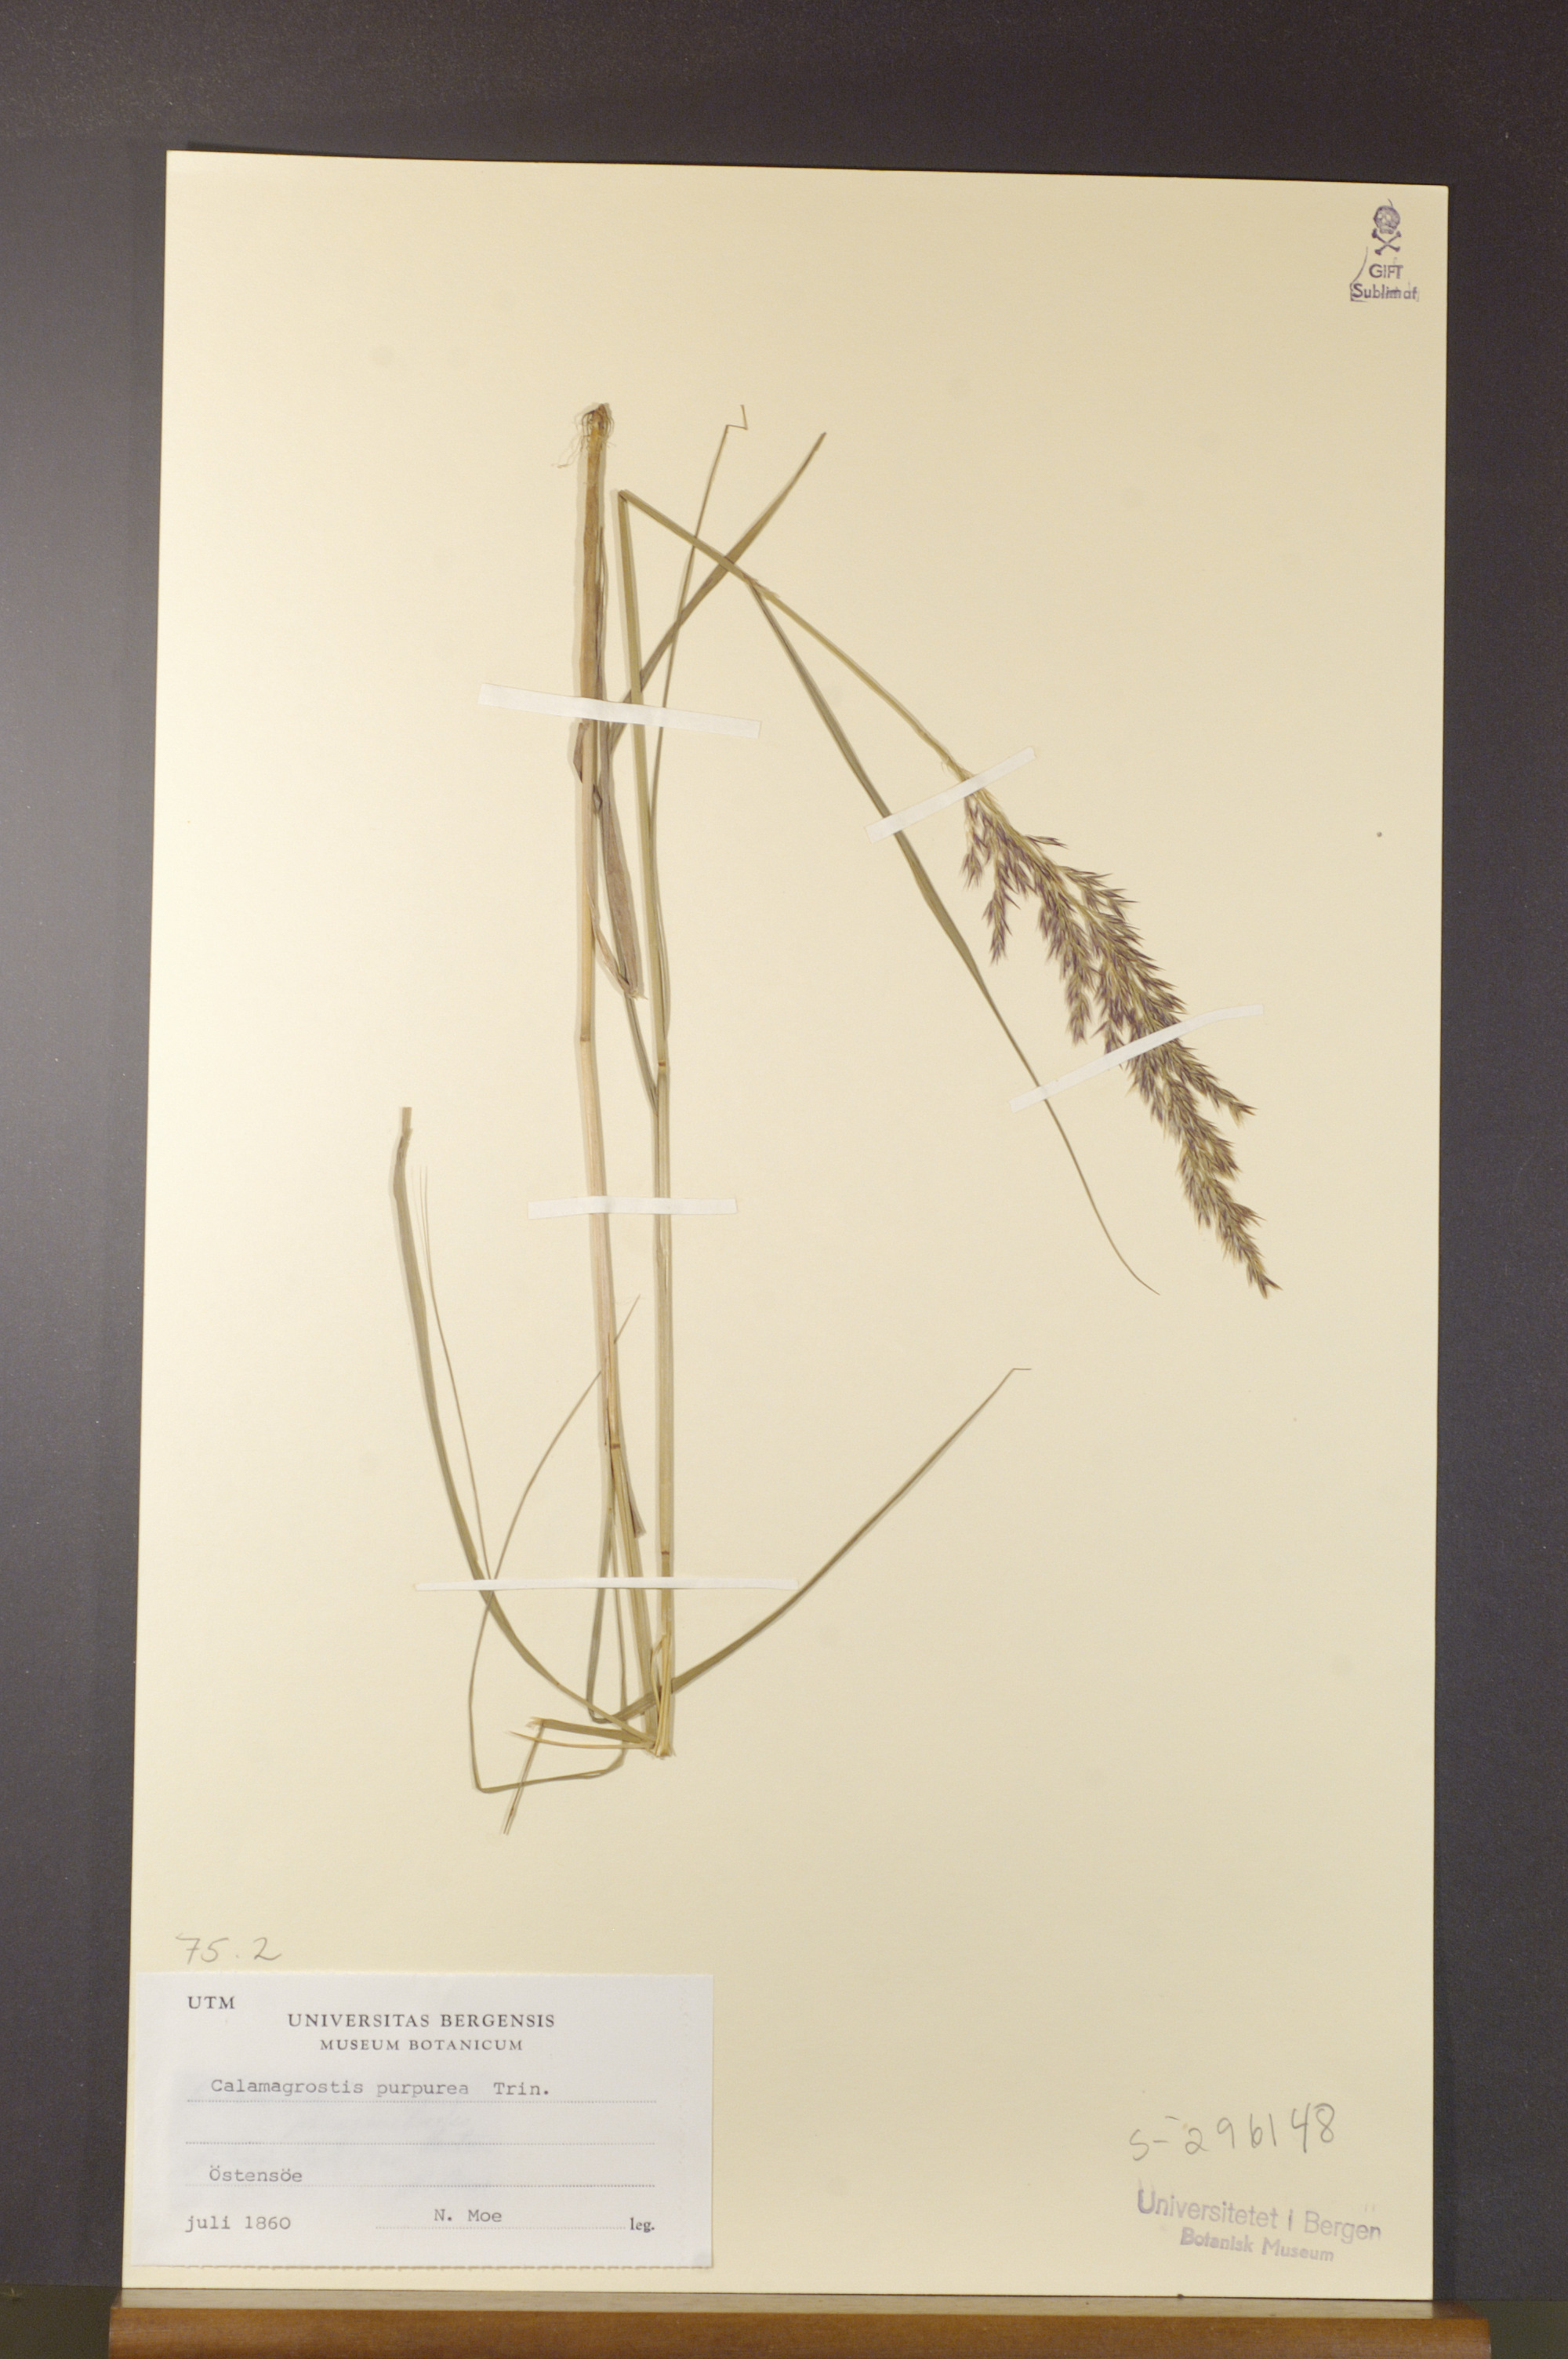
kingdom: Plantae
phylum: Tracheophyta
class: Liliopsida
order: Poales
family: Poaceae
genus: Calamagrostis
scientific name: Calamagrostis purpurea
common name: Scandinavian small-reed
